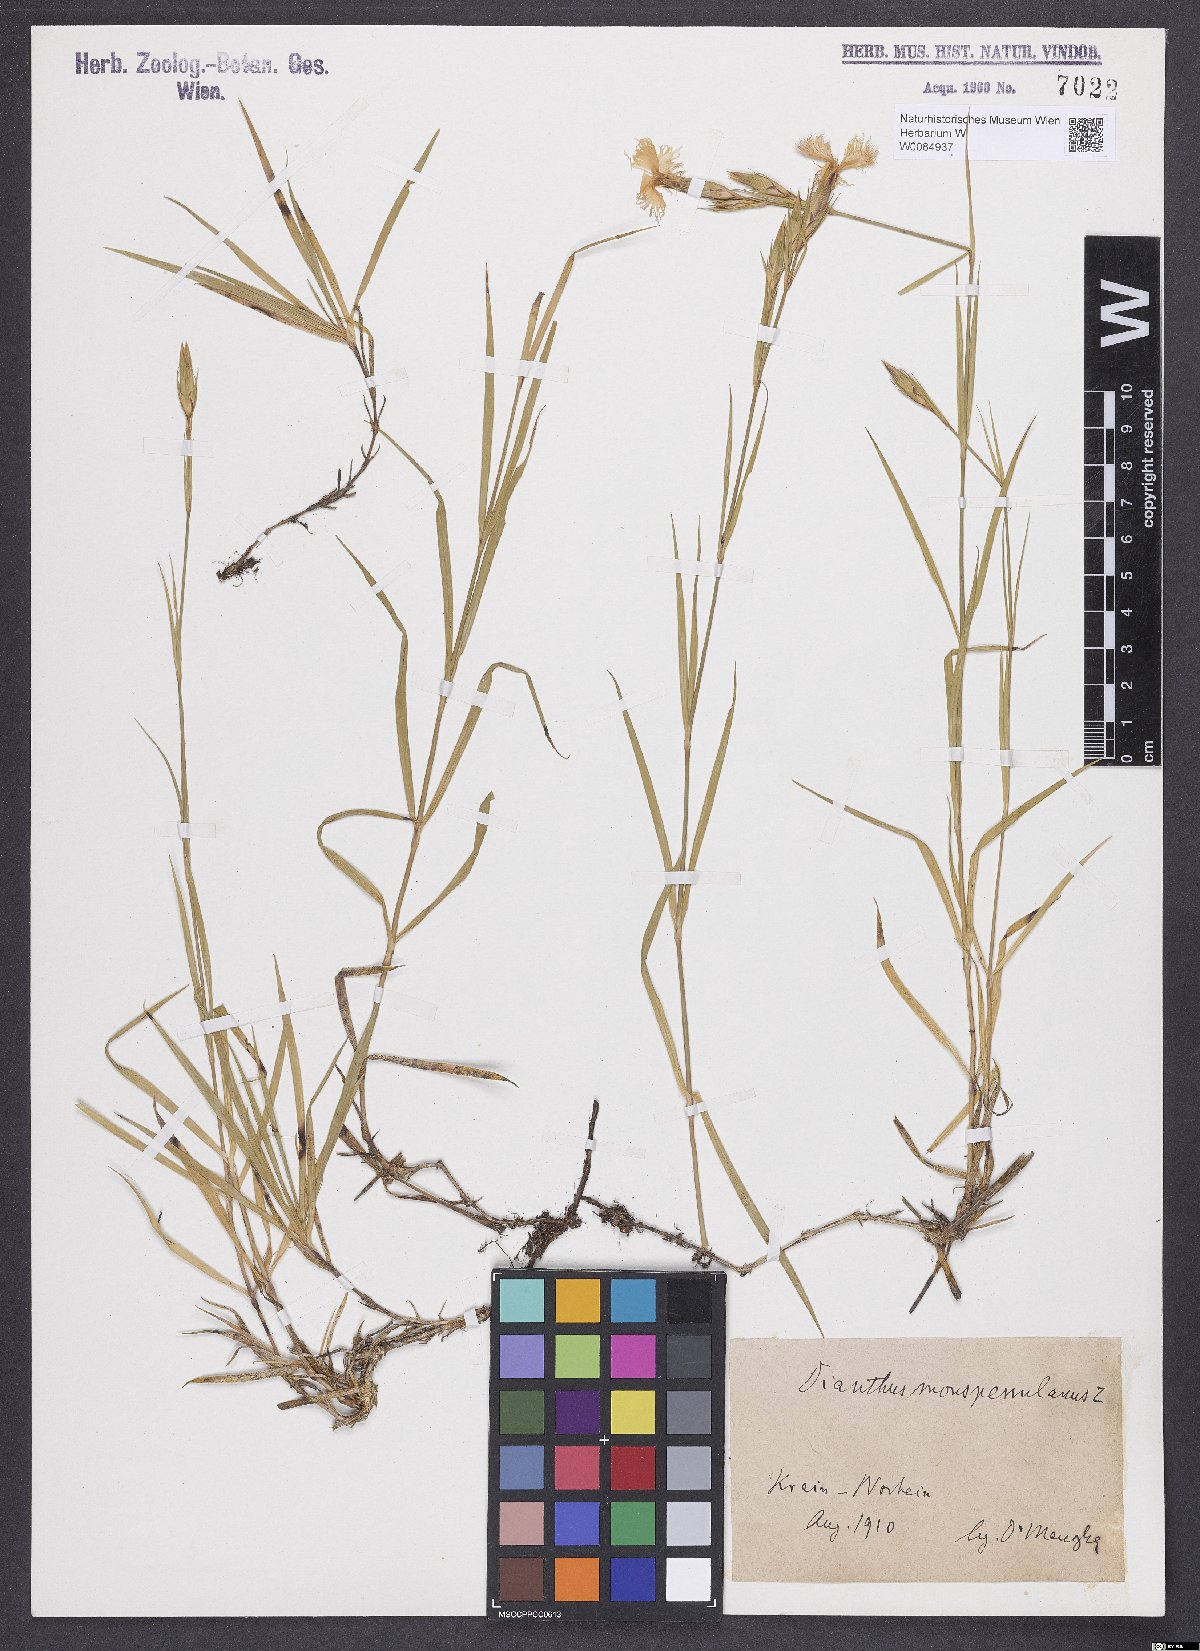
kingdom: Plantae
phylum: Tracheophyta
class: Magnoliopsida
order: Caryophyllales
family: Caryophyllaceae
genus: Dianthus
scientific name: Dianthus hyssopifolius
